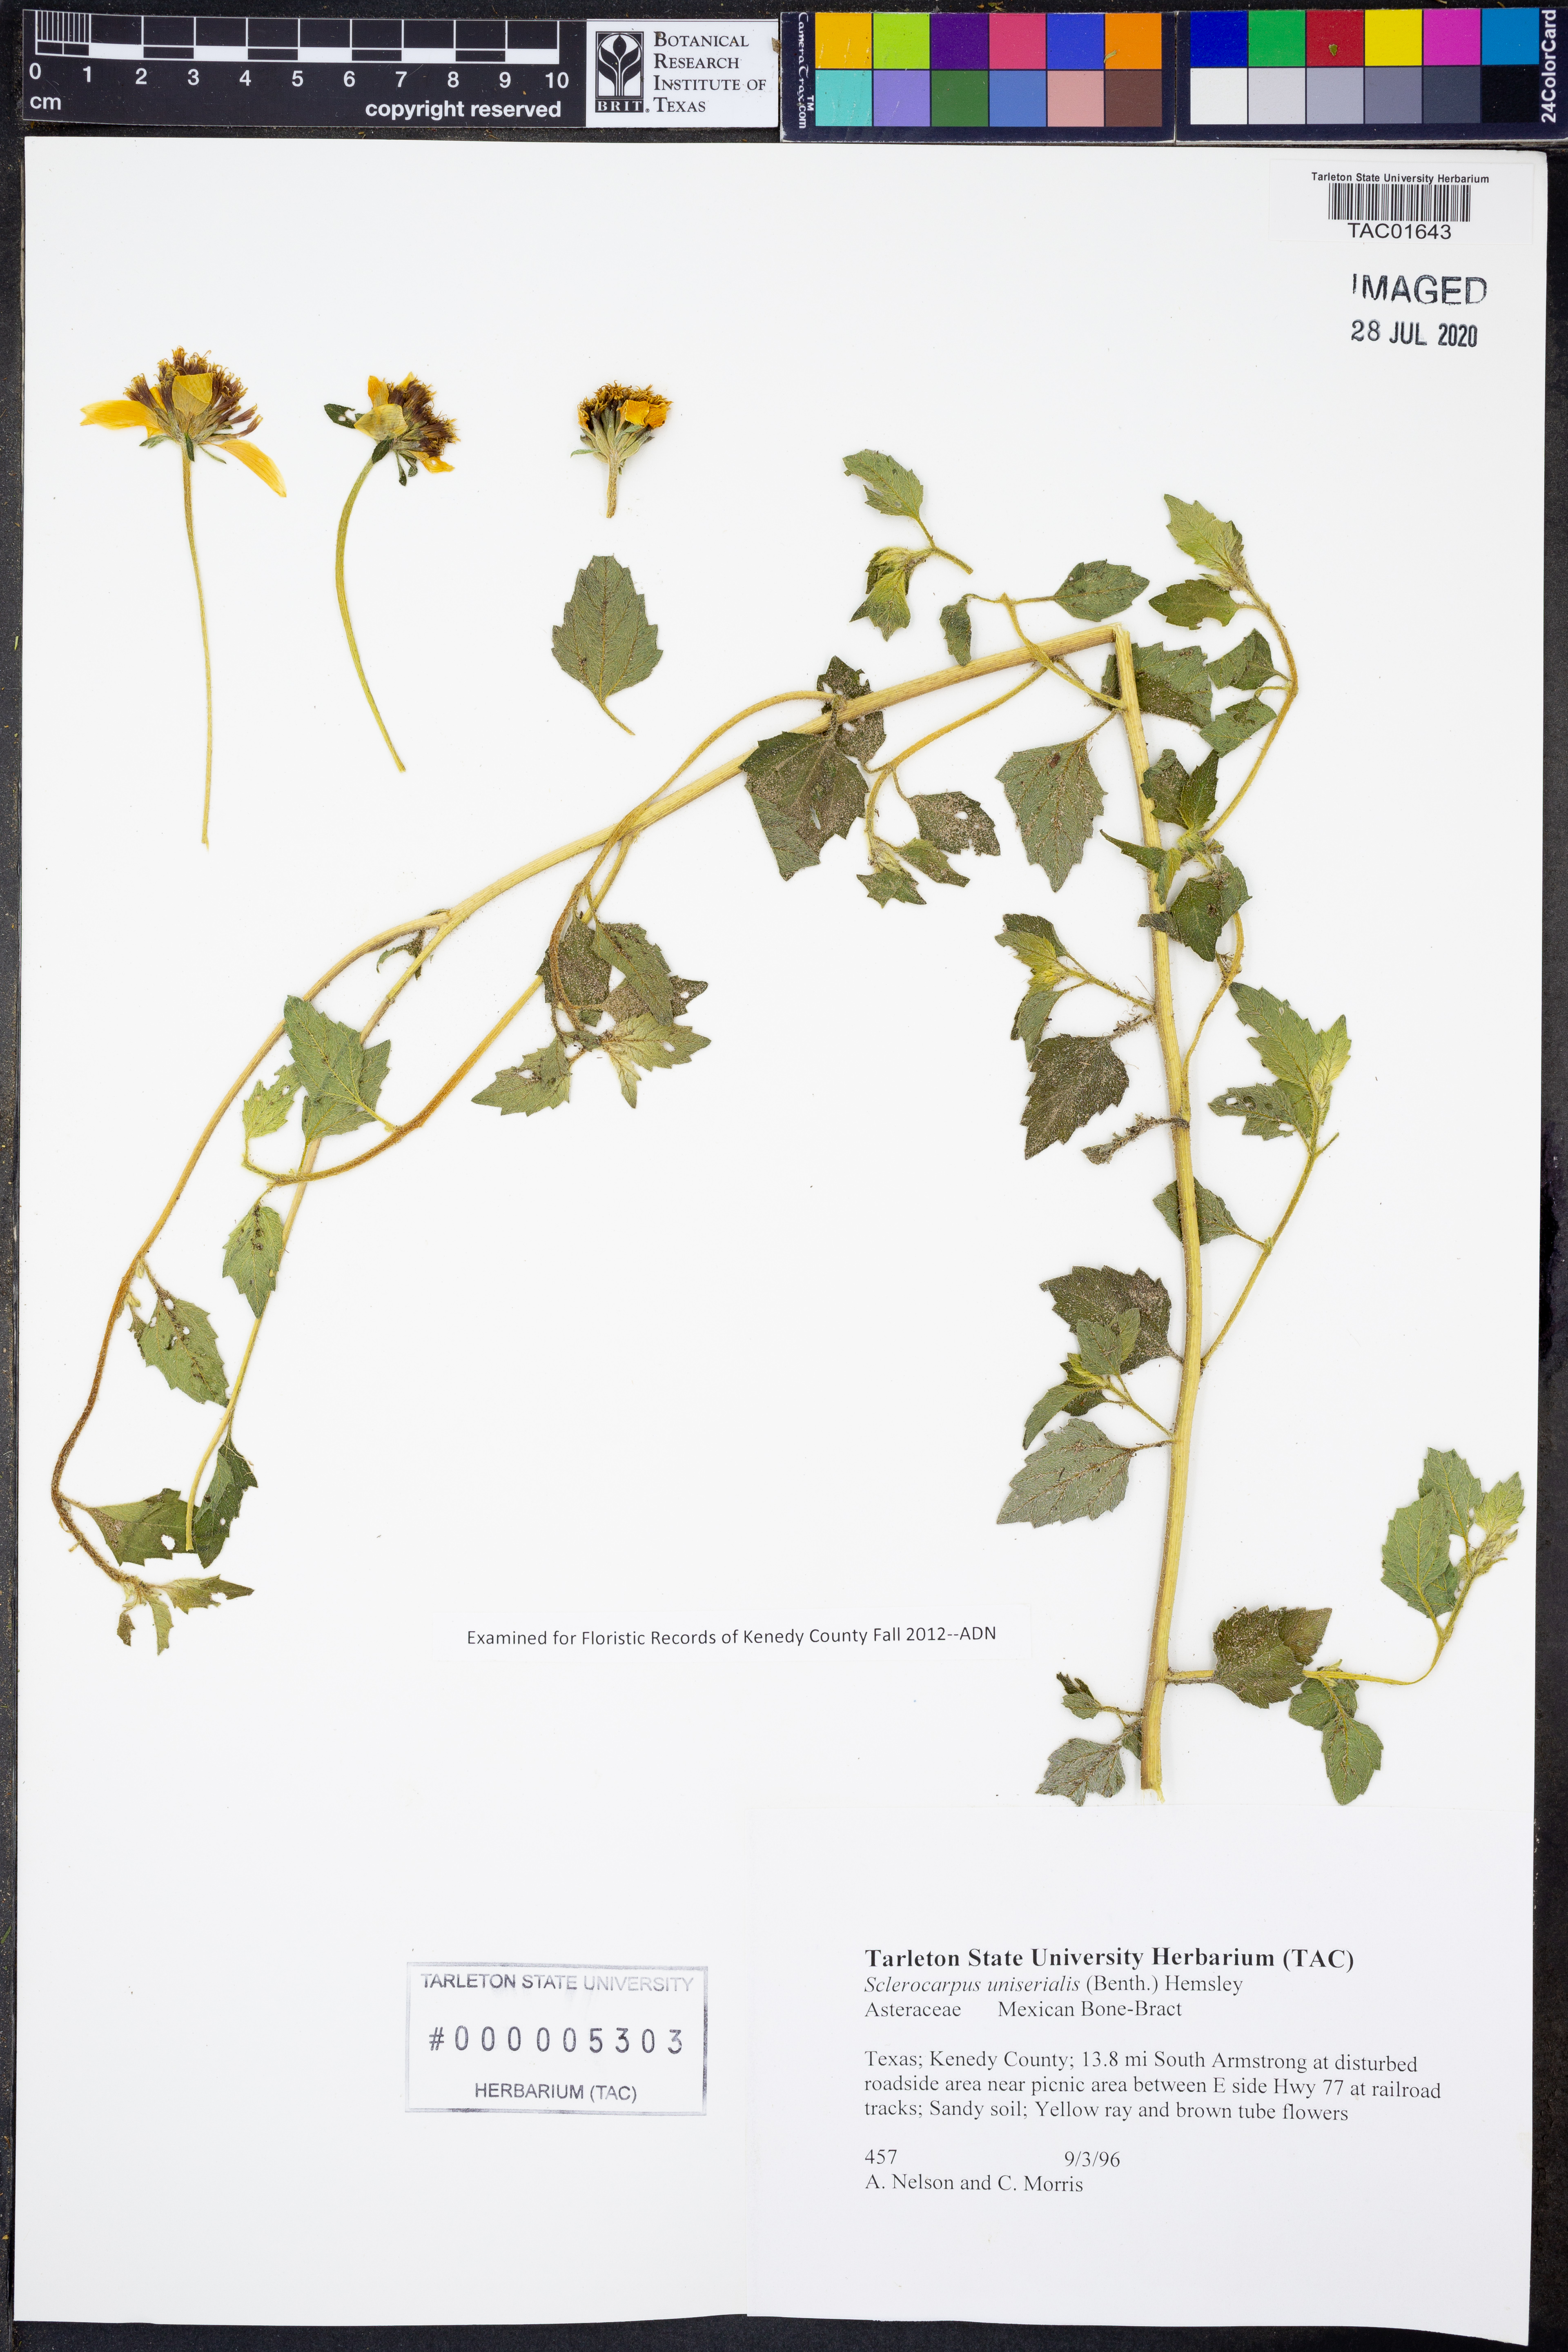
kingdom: Plantae
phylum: Tracheophyta
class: Magnoliopsida
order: Asterales
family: Asteraceae
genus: Sclerocarpus
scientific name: Sclerocarpus uniserialis
